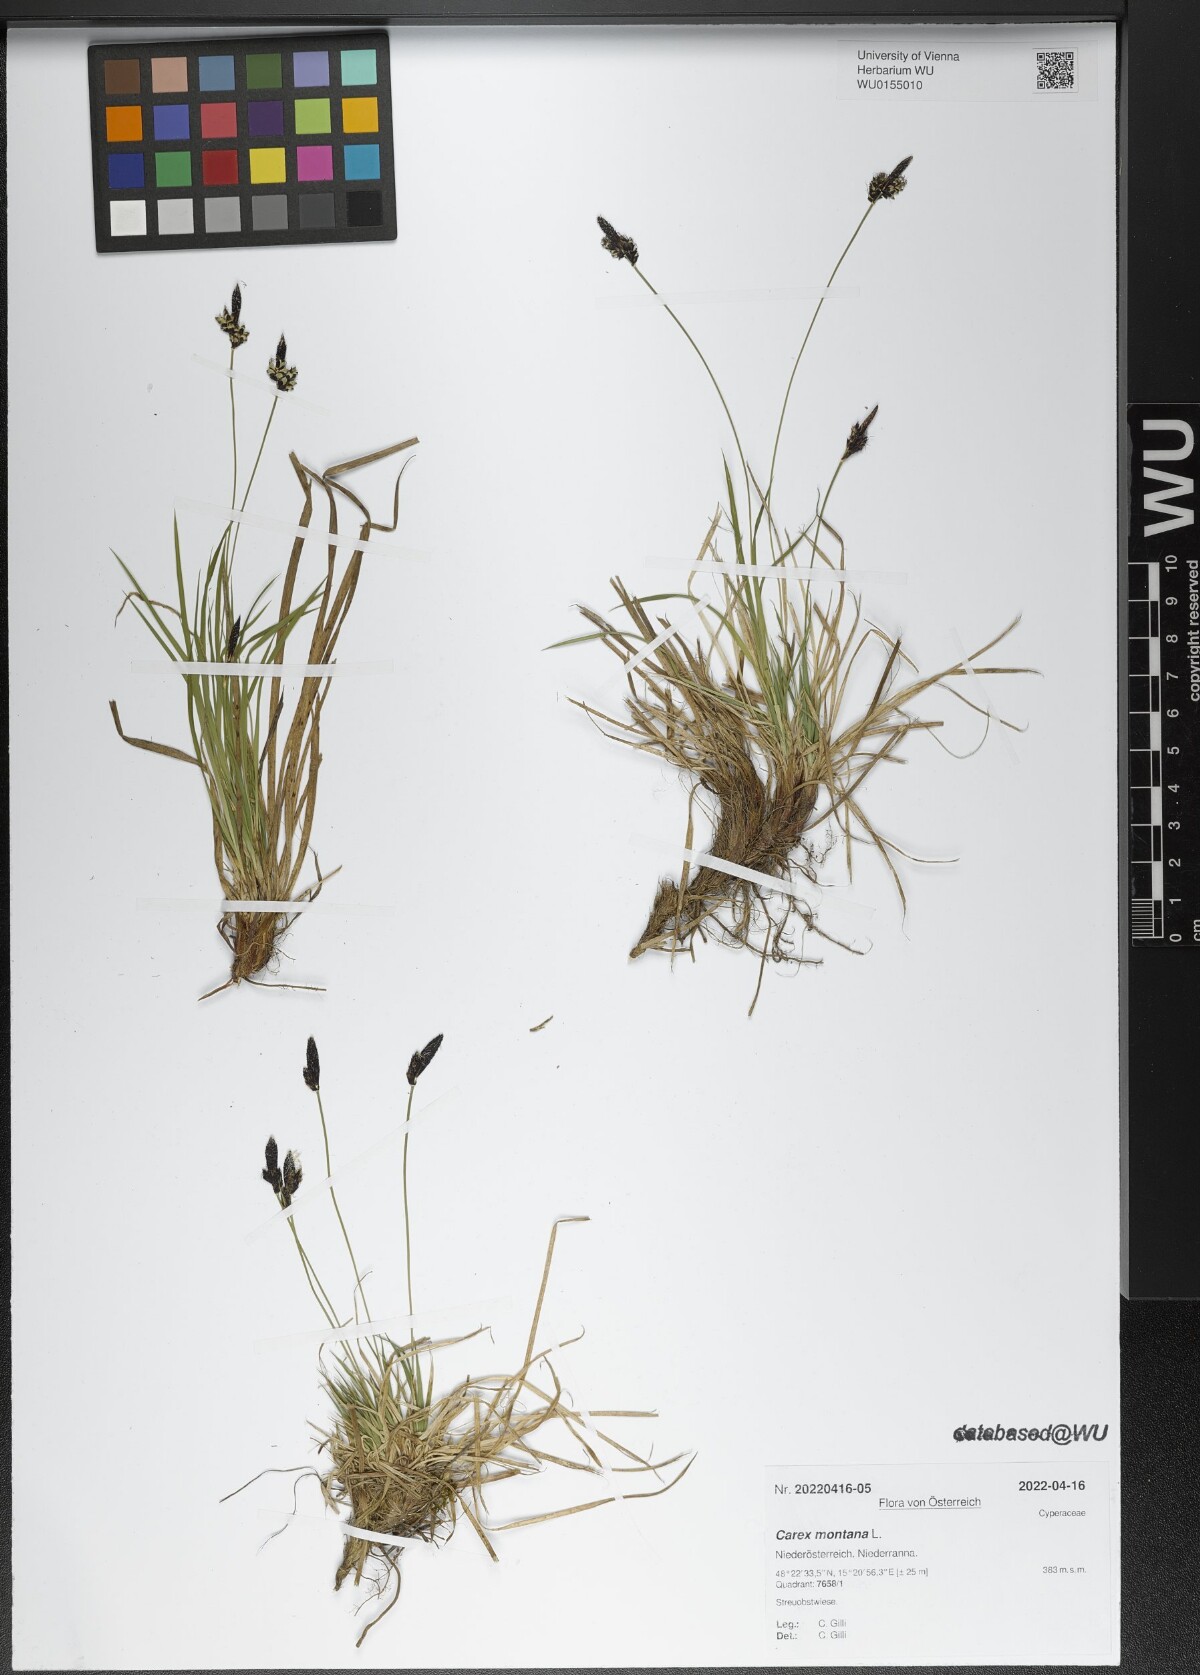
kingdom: Plantae
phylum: Tracheophyta
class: Liliopsida
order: Poales
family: Cyperaceae
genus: Carex
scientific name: Carex montana
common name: Soft-leaved sedge
